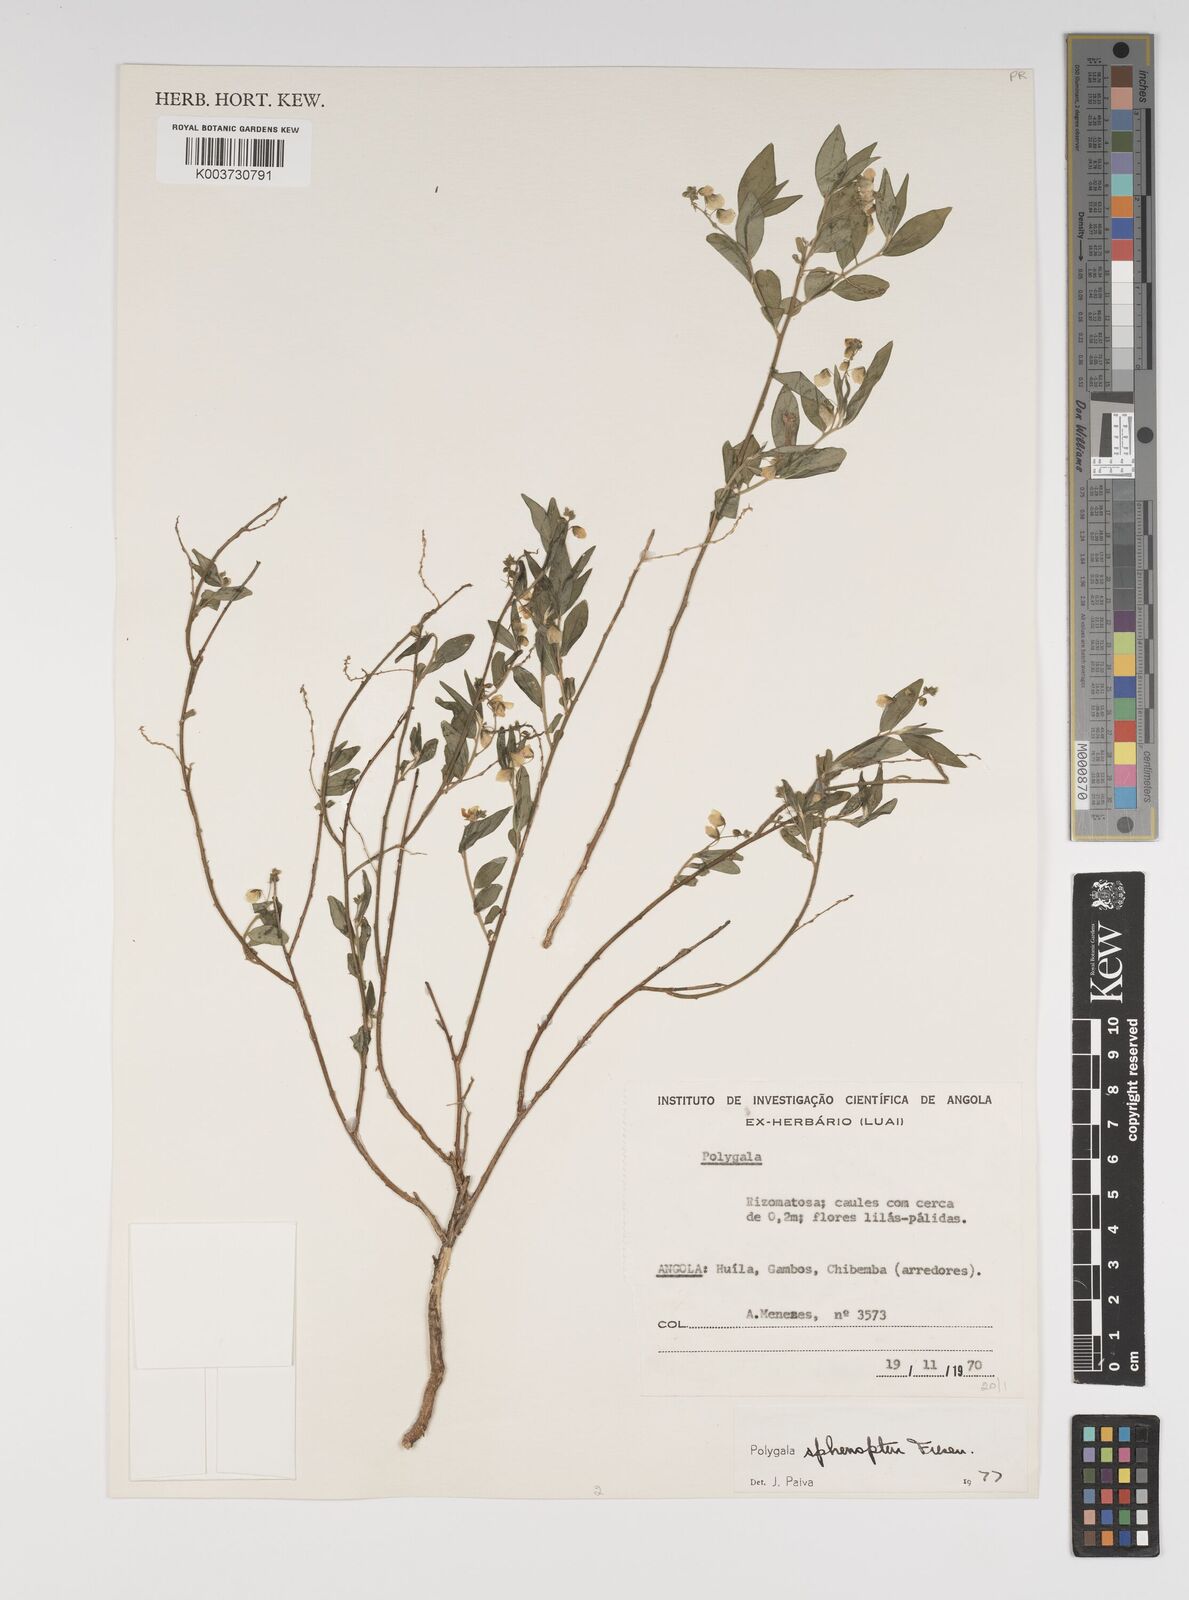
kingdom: Plantae
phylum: Tracheophyta
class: Magnoliopsida
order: Fabales
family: Polygalaceae
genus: Polygala
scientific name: Polygala sphenoptera
